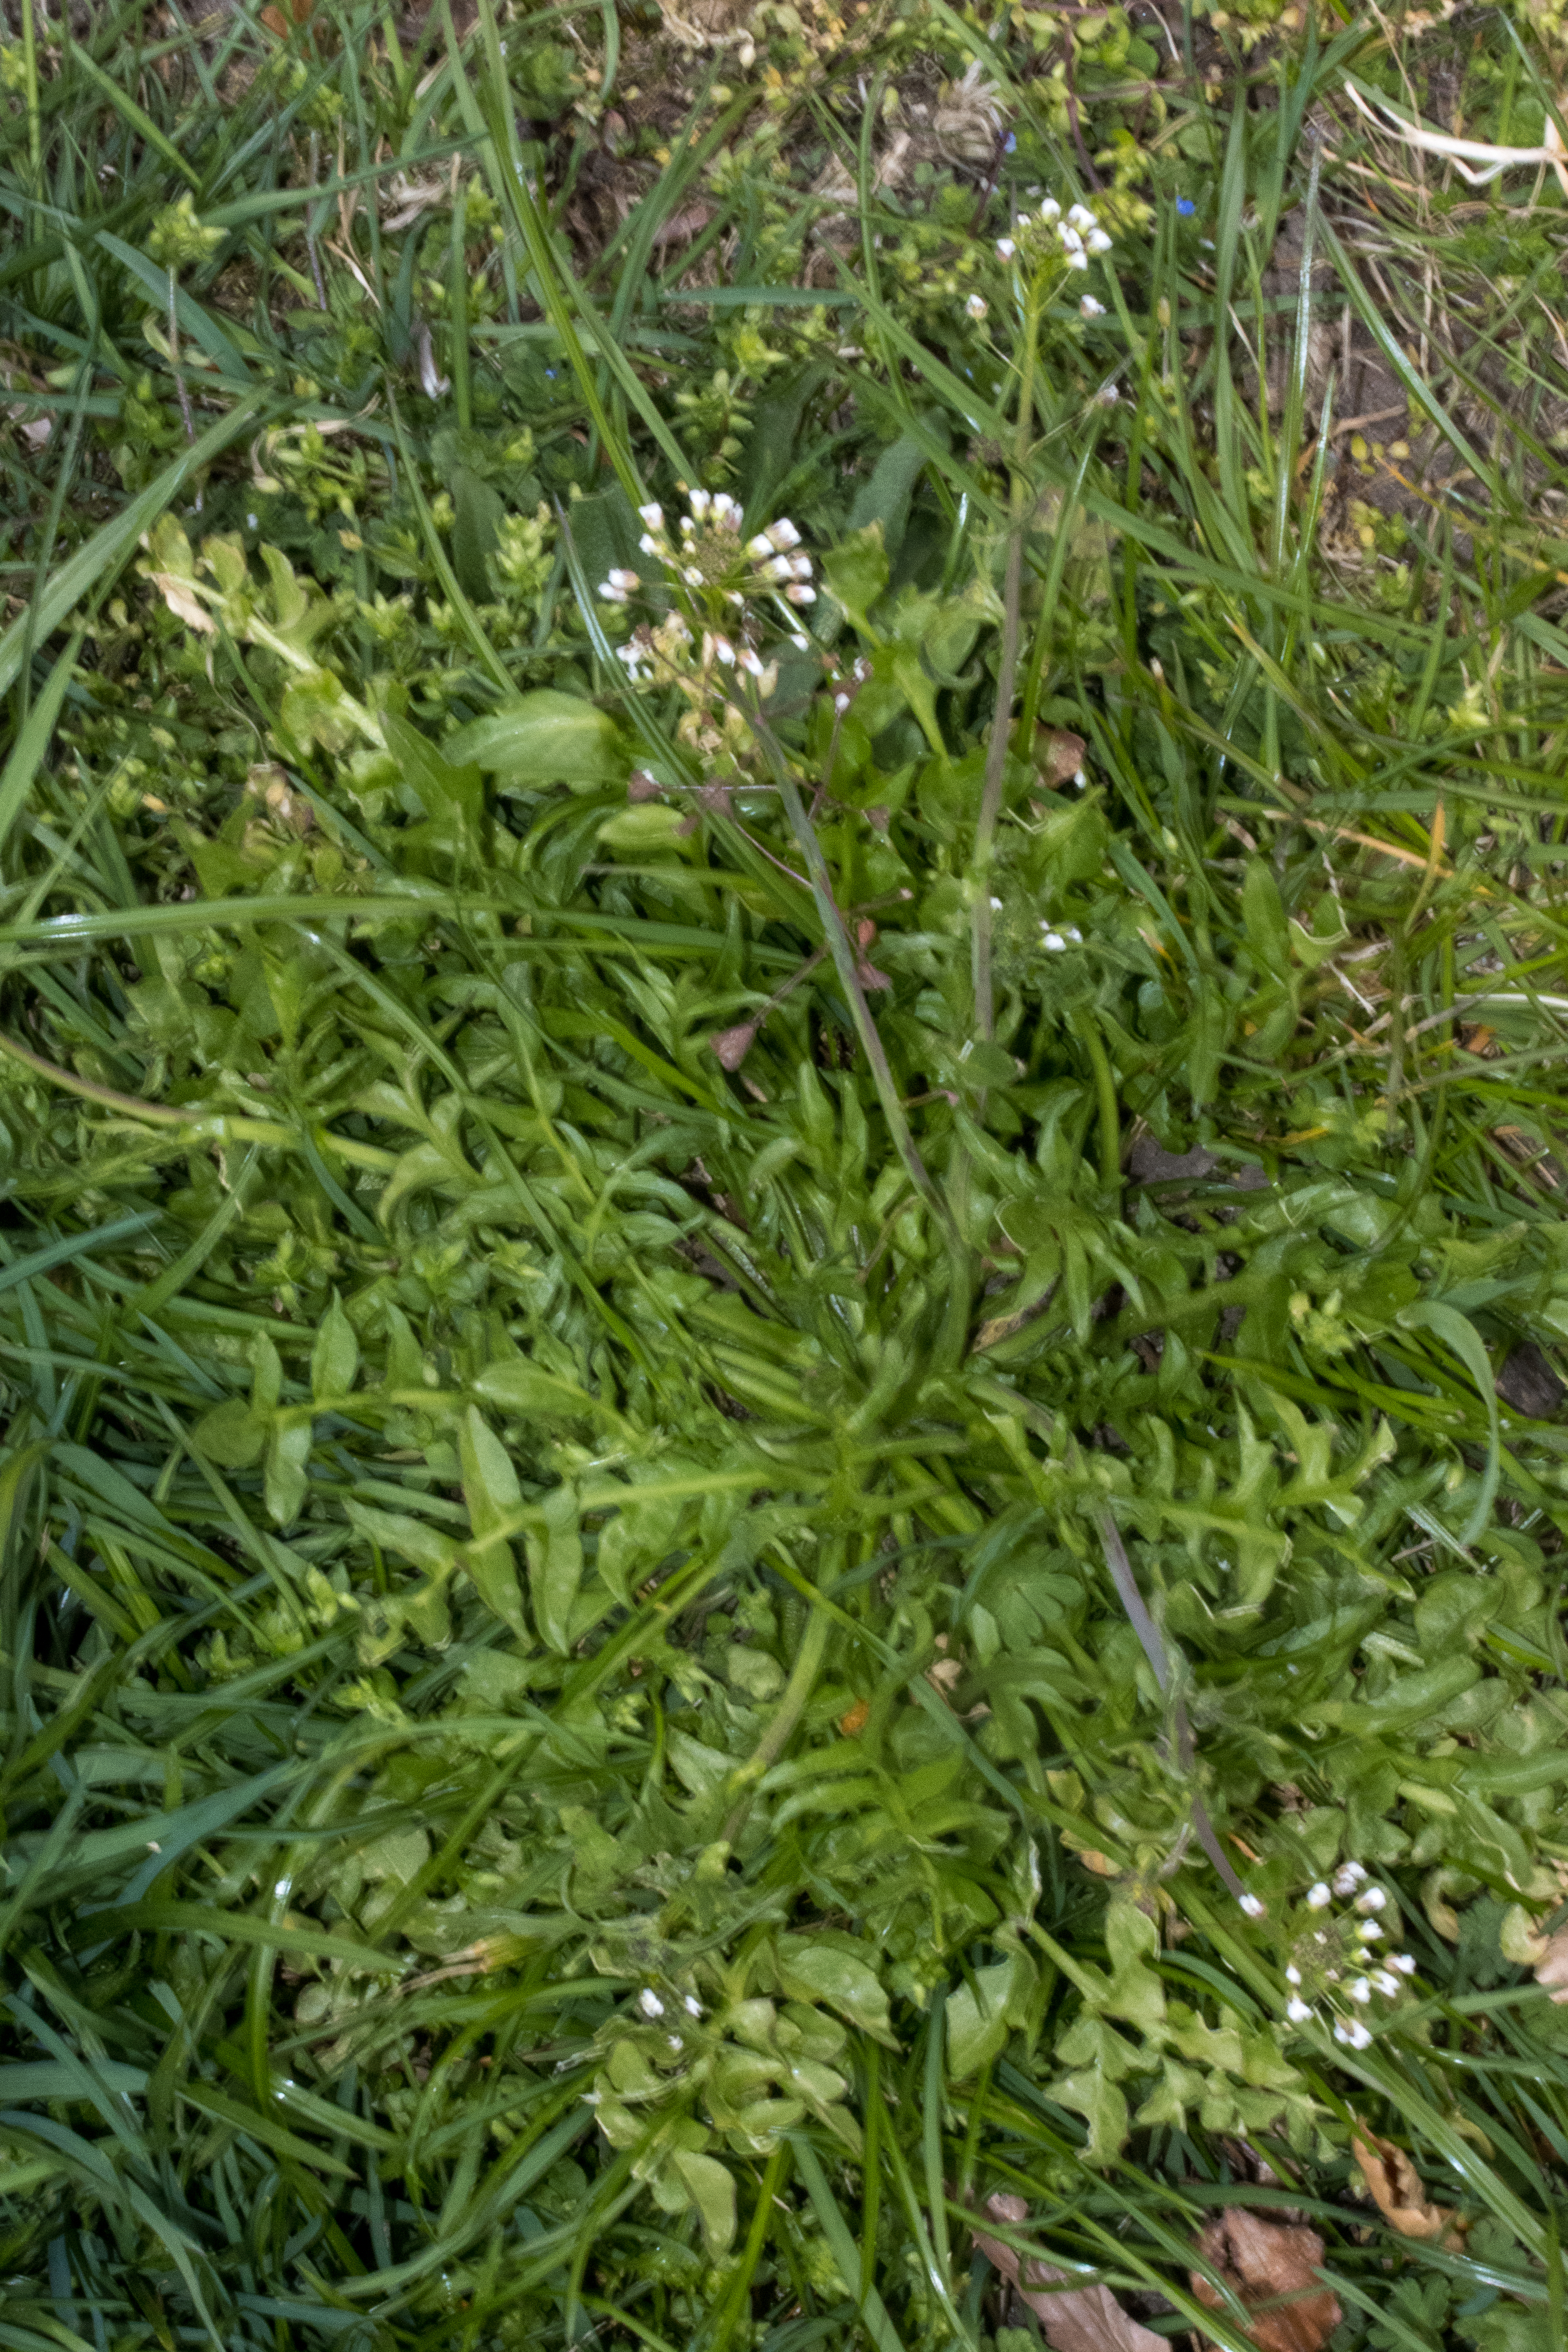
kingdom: Plantae
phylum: Tracheophyta
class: Magnoliopsida
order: Brassicales
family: Brassicaceae
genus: Capsella
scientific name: Capsella bursa-pastoris
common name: Hyrdetaske
